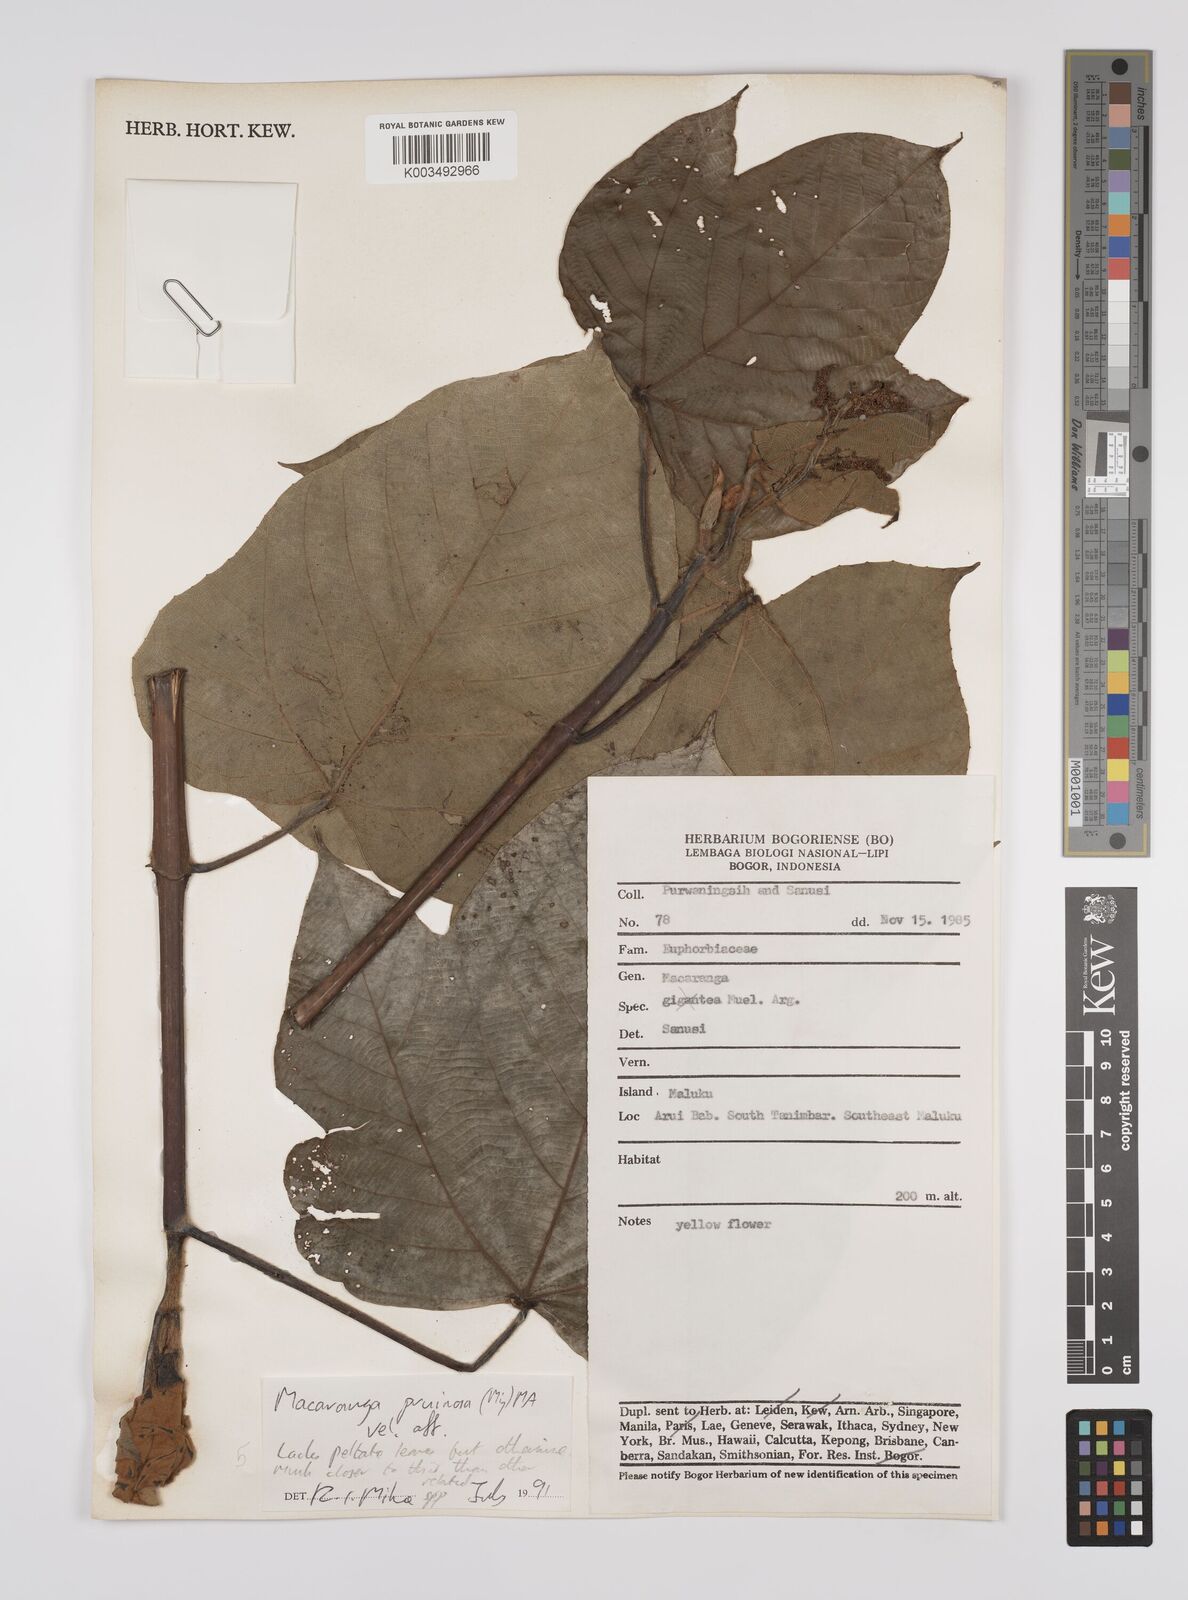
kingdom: Plantae
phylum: Tracheophyta
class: Magnoliopsida
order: Malpighiales
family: Euphorbiaceae
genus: Macaranga
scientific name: Macaranga pruinosa
